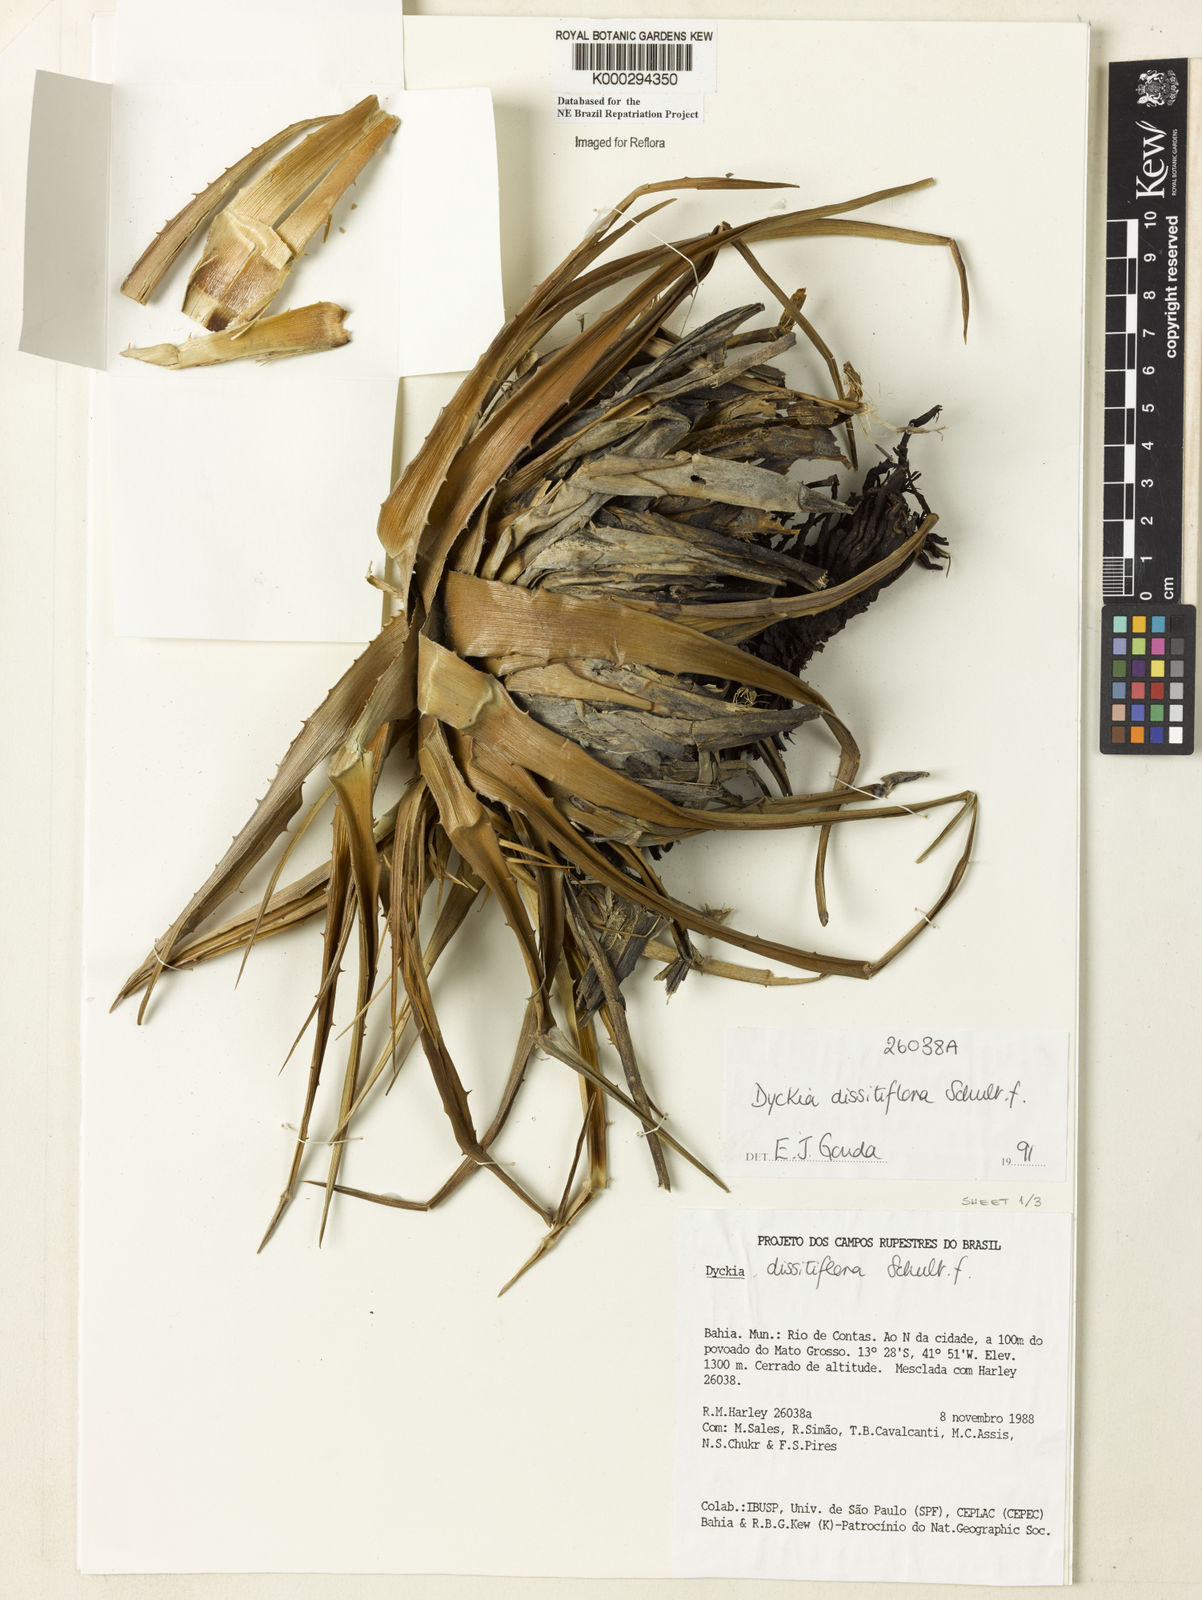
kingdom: Plantae
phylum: Tracheophyta
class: Liliopsida
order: Poales
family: Bromeliaceae
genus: Dyckia
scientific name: Dyckia dissitiflora
